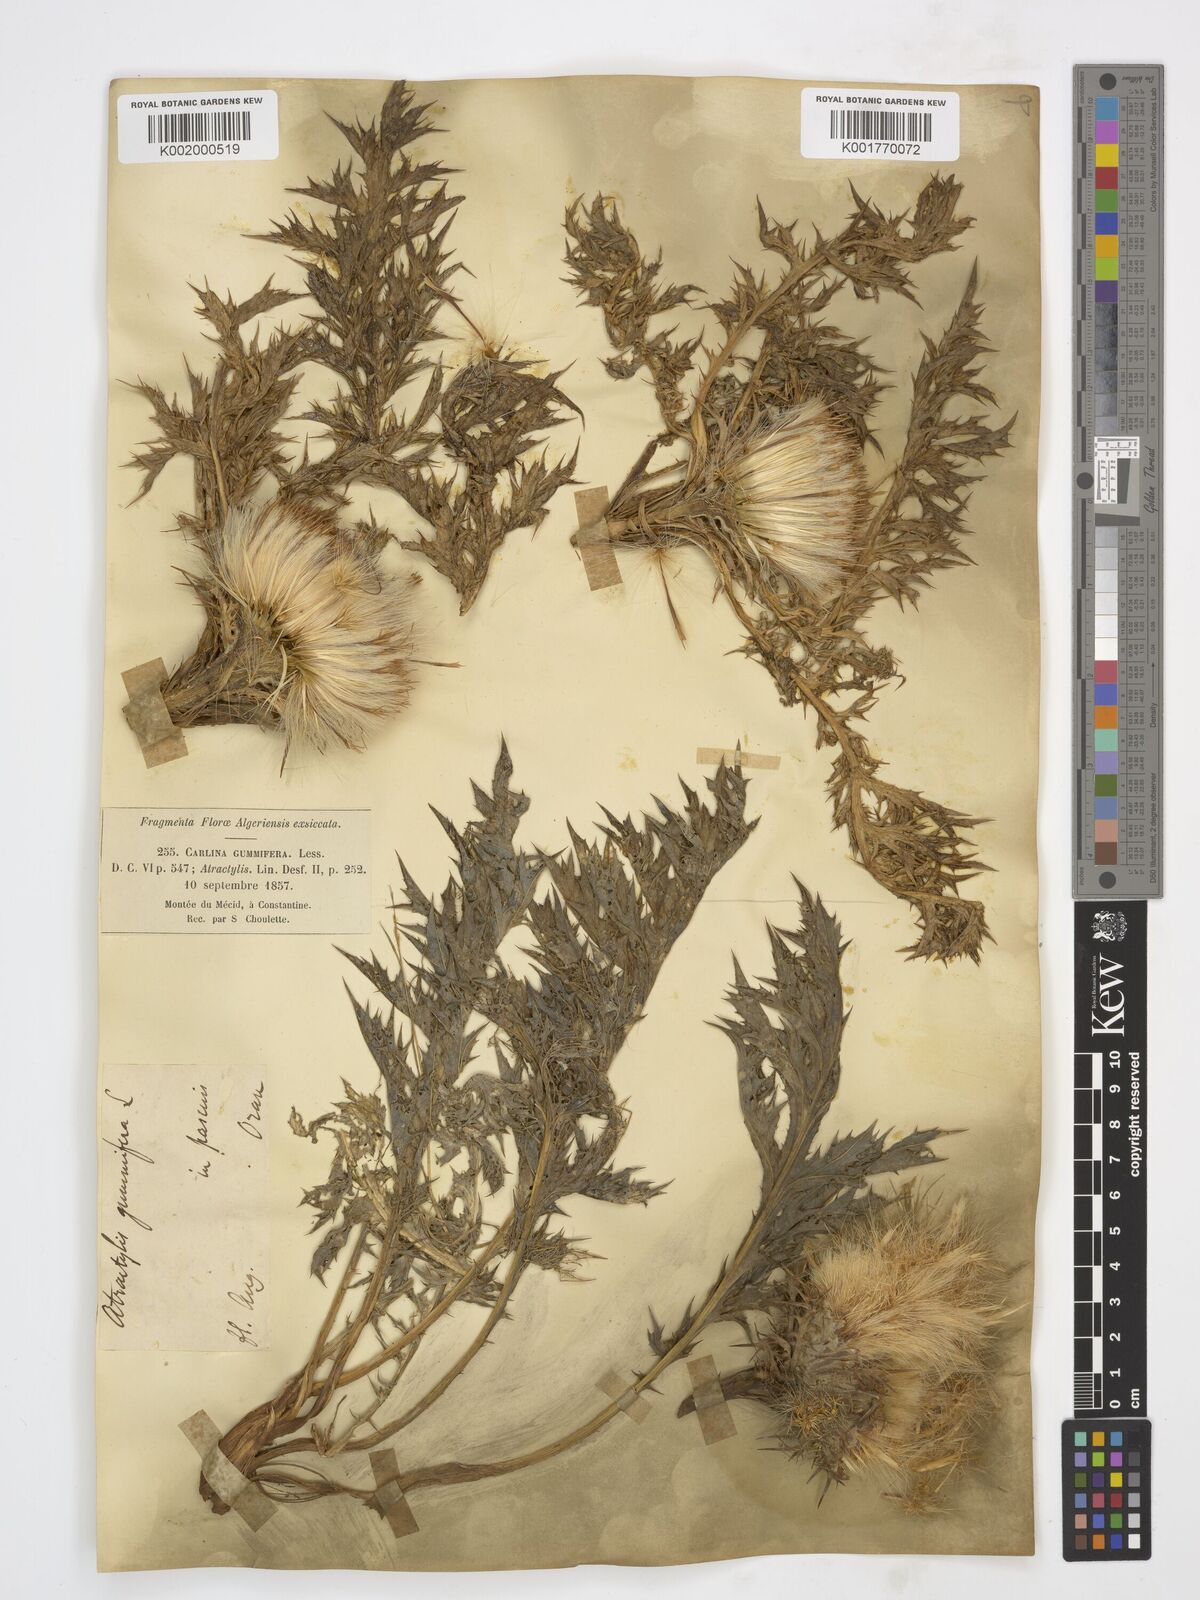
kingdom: Plantae
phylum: Tracheophyta
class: Magnoliopsida
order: Asterales
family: Asteraceae
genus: Chamaeleon
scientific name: Chamaeleon gummifer
